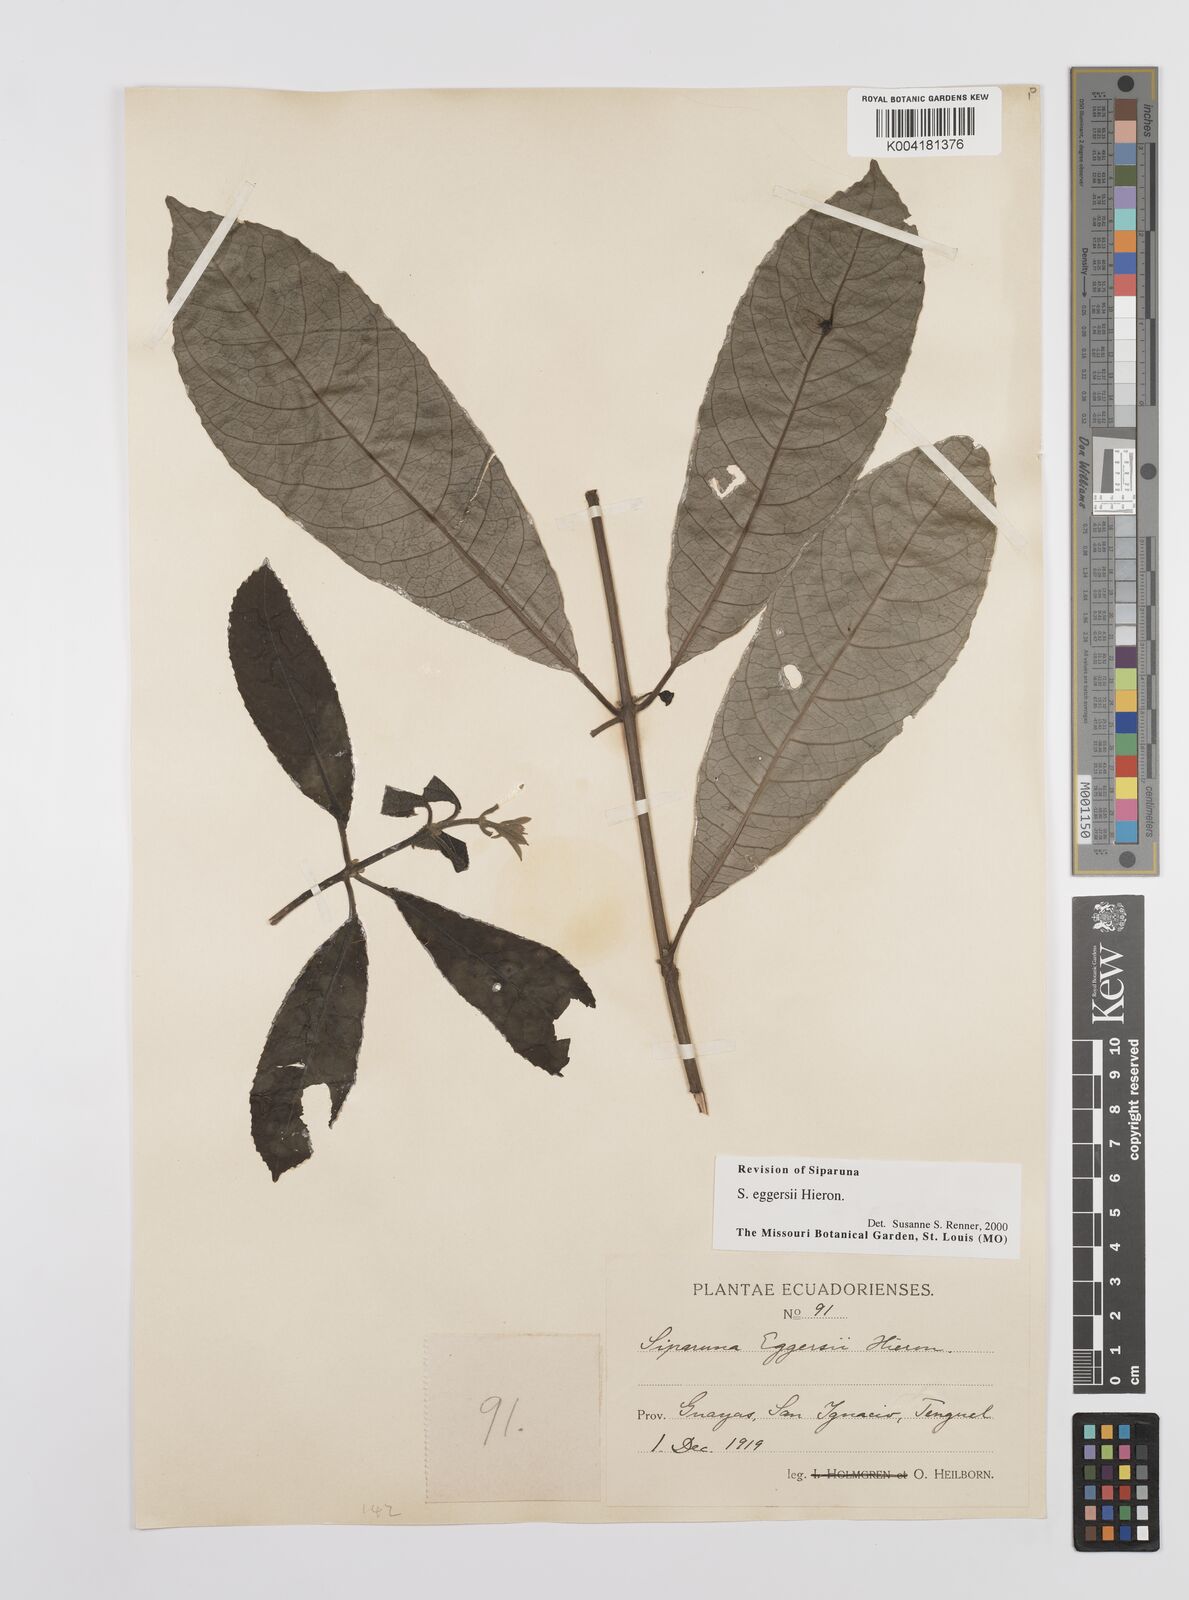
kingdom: Plantae
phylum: Tracheophyta
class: Magnoliopsida
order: Laurales
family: Siparunaceae
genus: Siparuna
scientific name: Siparuna eggersii
